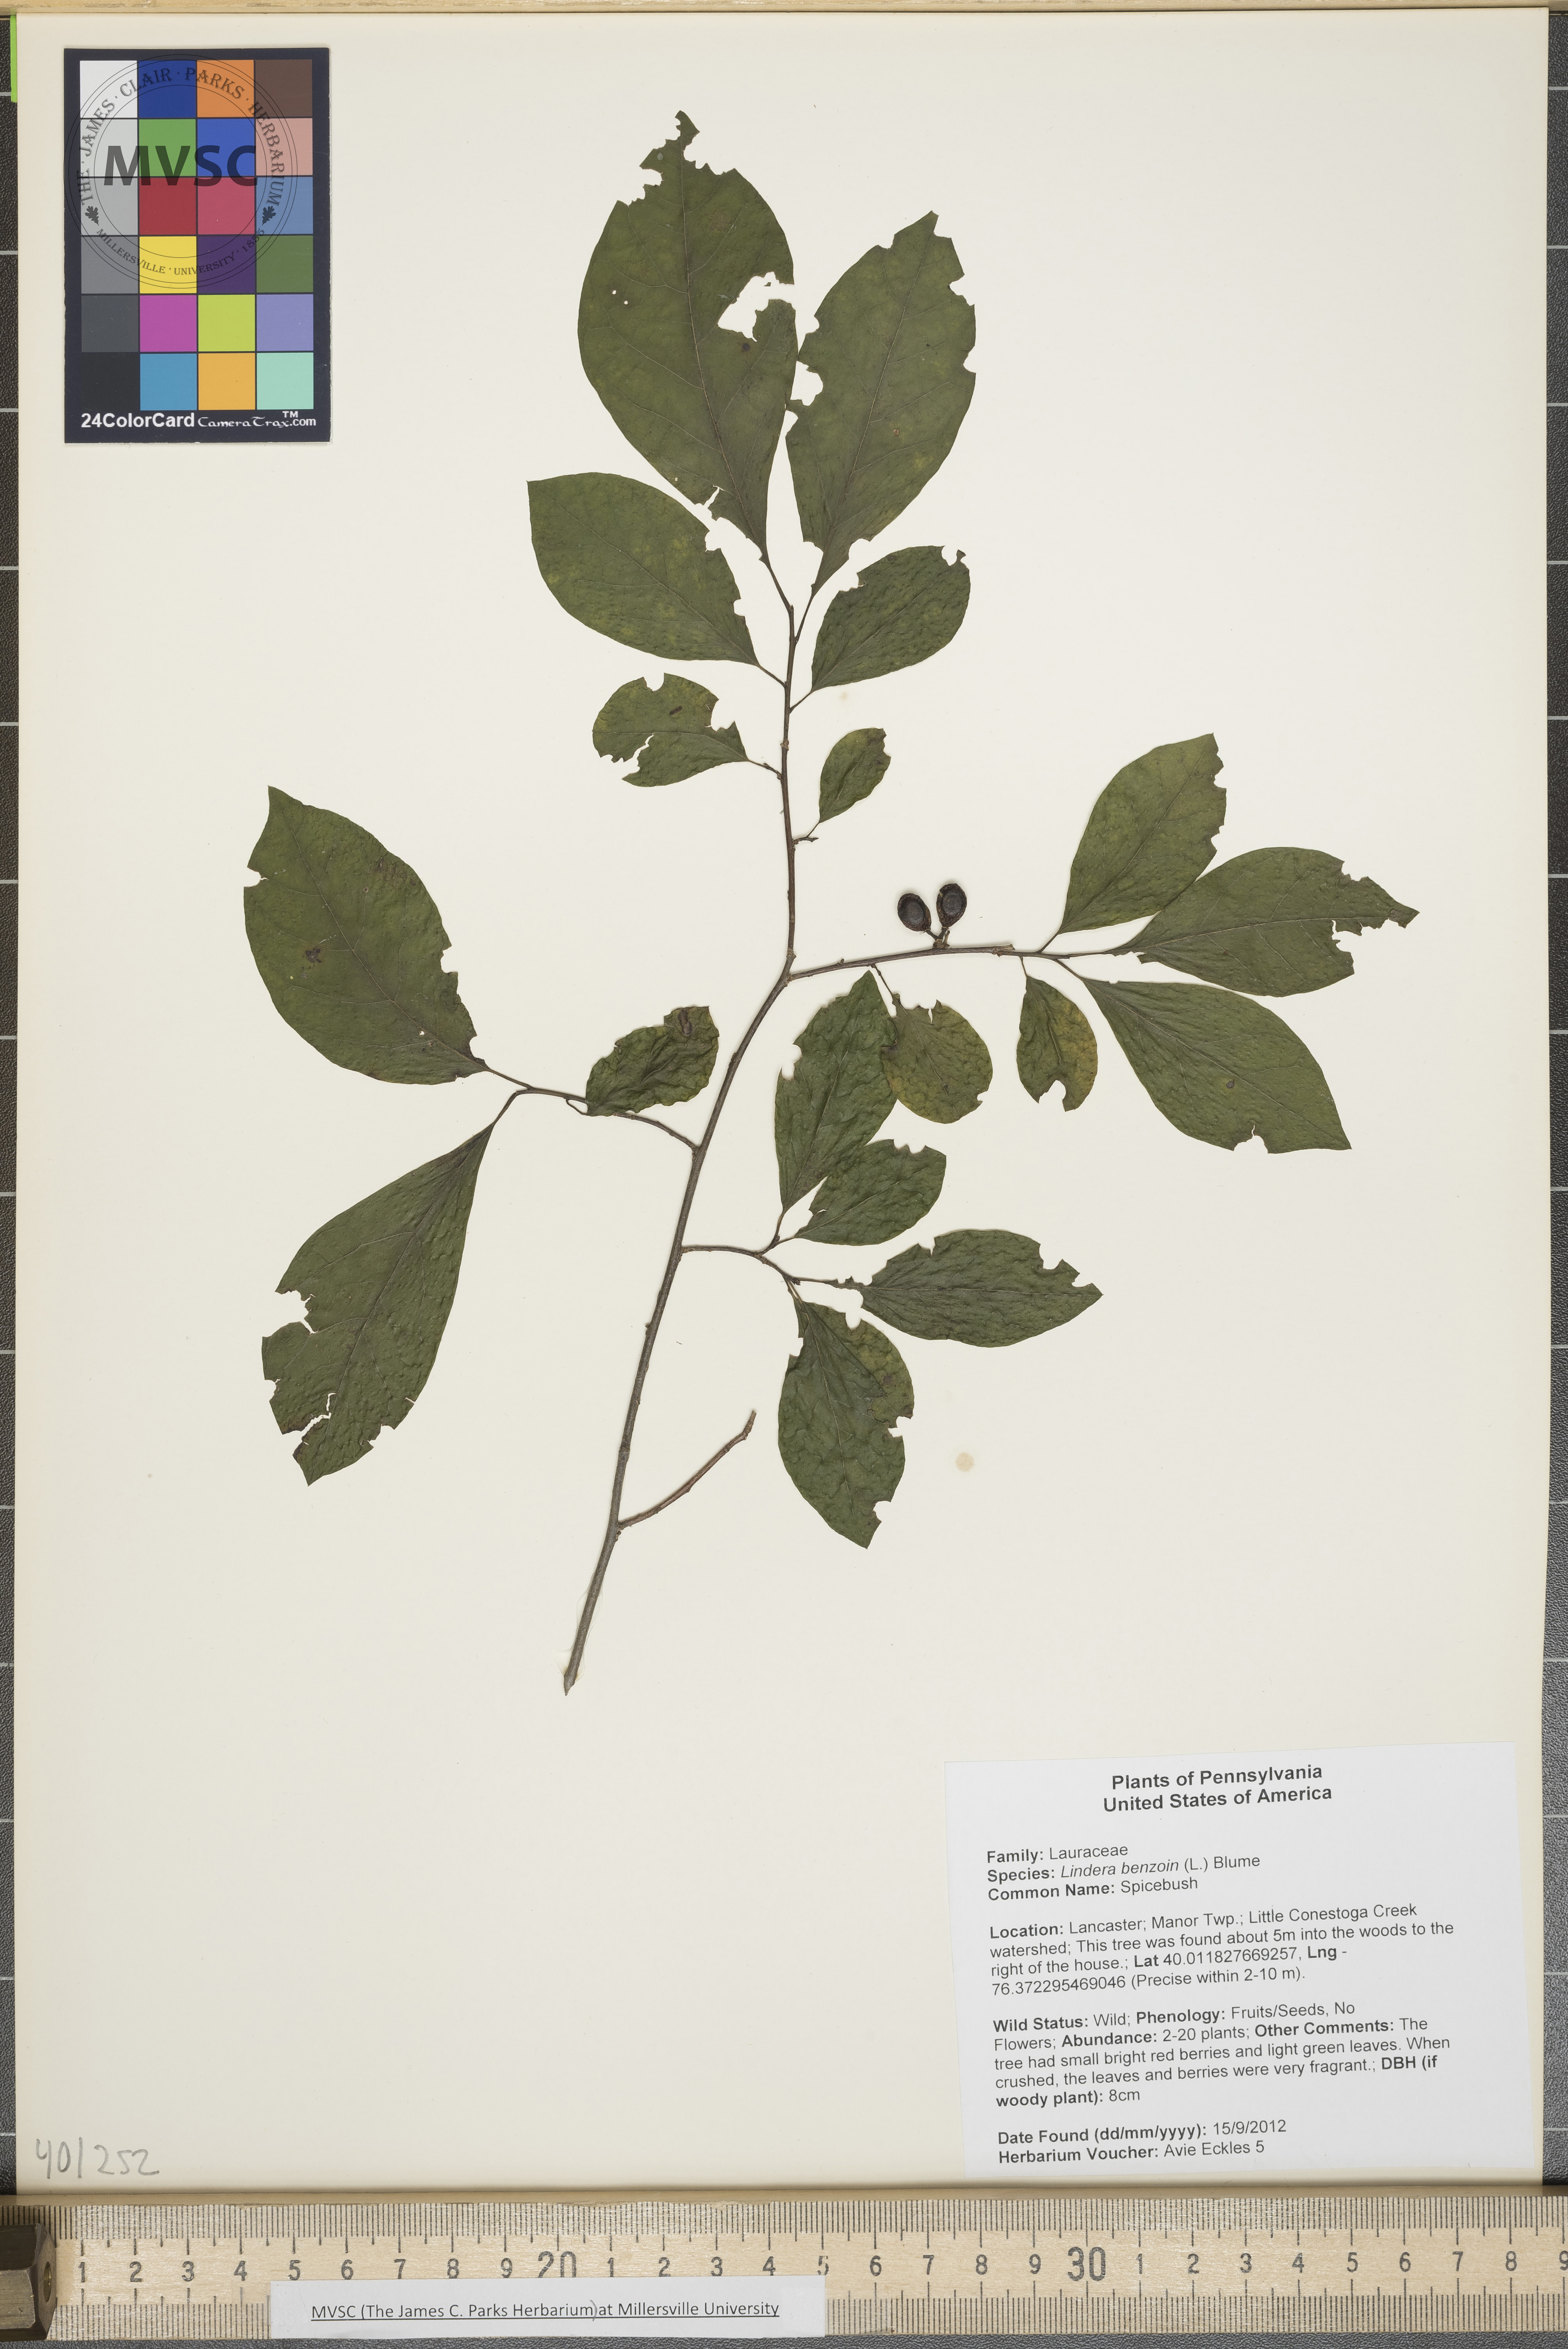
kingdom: Plantae
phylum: Tracheophyta
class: Magnoliopsida
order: Laurales
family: Lauraceae
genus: Lindera
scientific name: Lindera benzoin
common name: Spicebush
